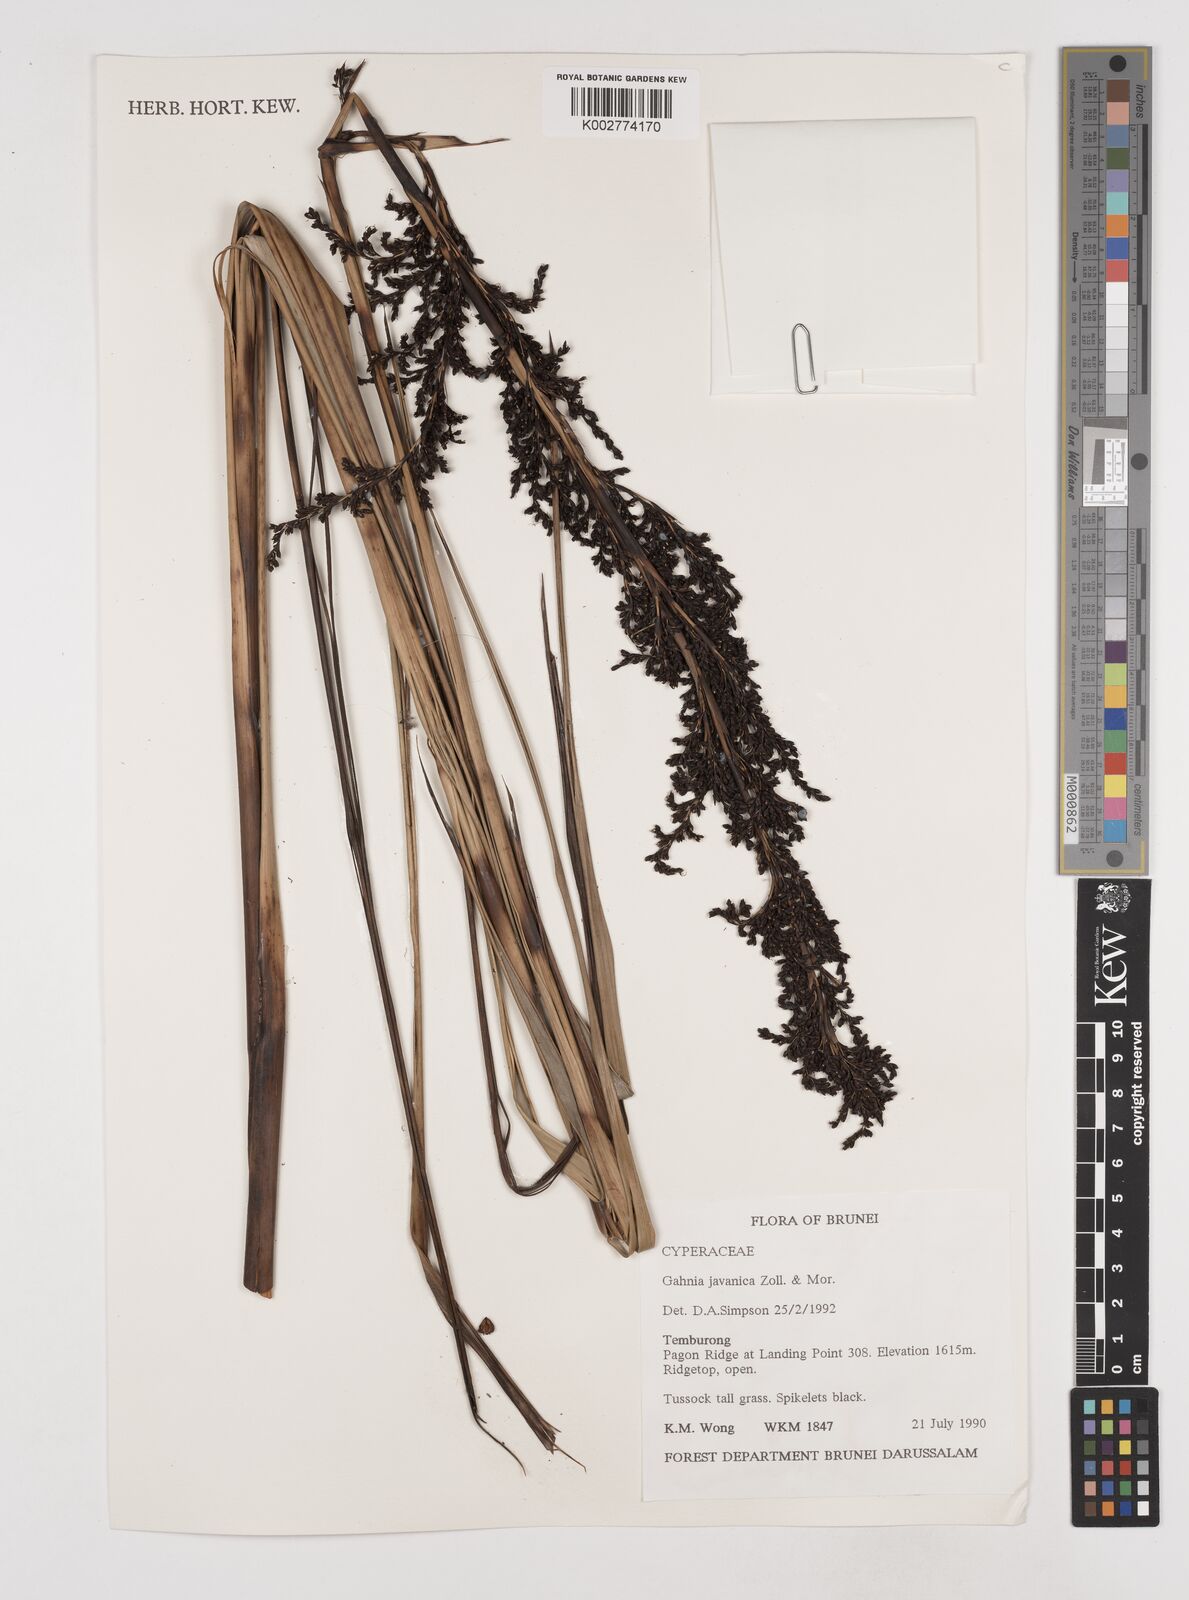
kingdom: Plantae
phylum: Tracheophyta
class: Liliopsida
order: Poales
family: Cyperaceae
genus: Gahnia
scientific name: Gahnia javanica
